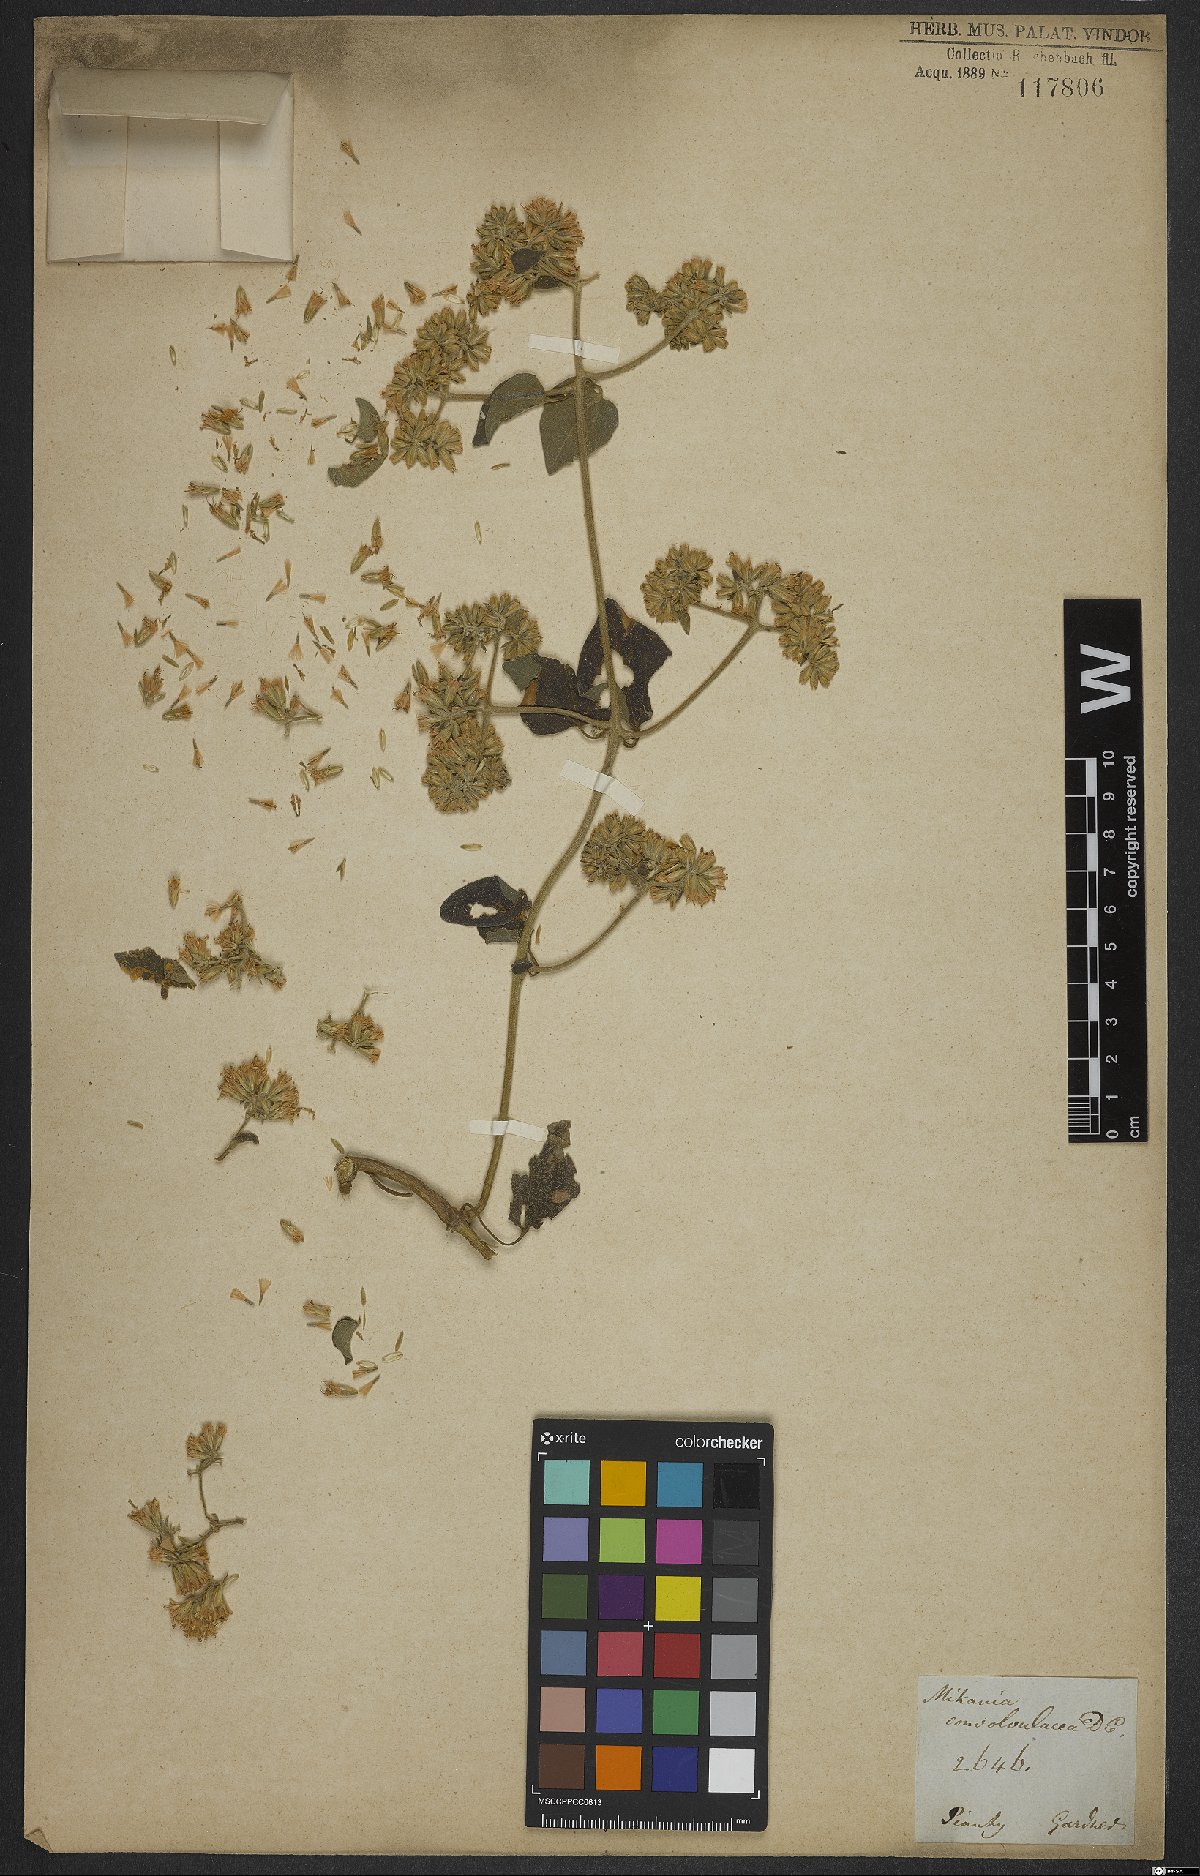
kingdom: Plantae
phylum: Tracheophyta
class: Magnoliopsida
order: Asterales
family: Asteraceae
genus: Mikania
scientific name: Mikania cordifolia
